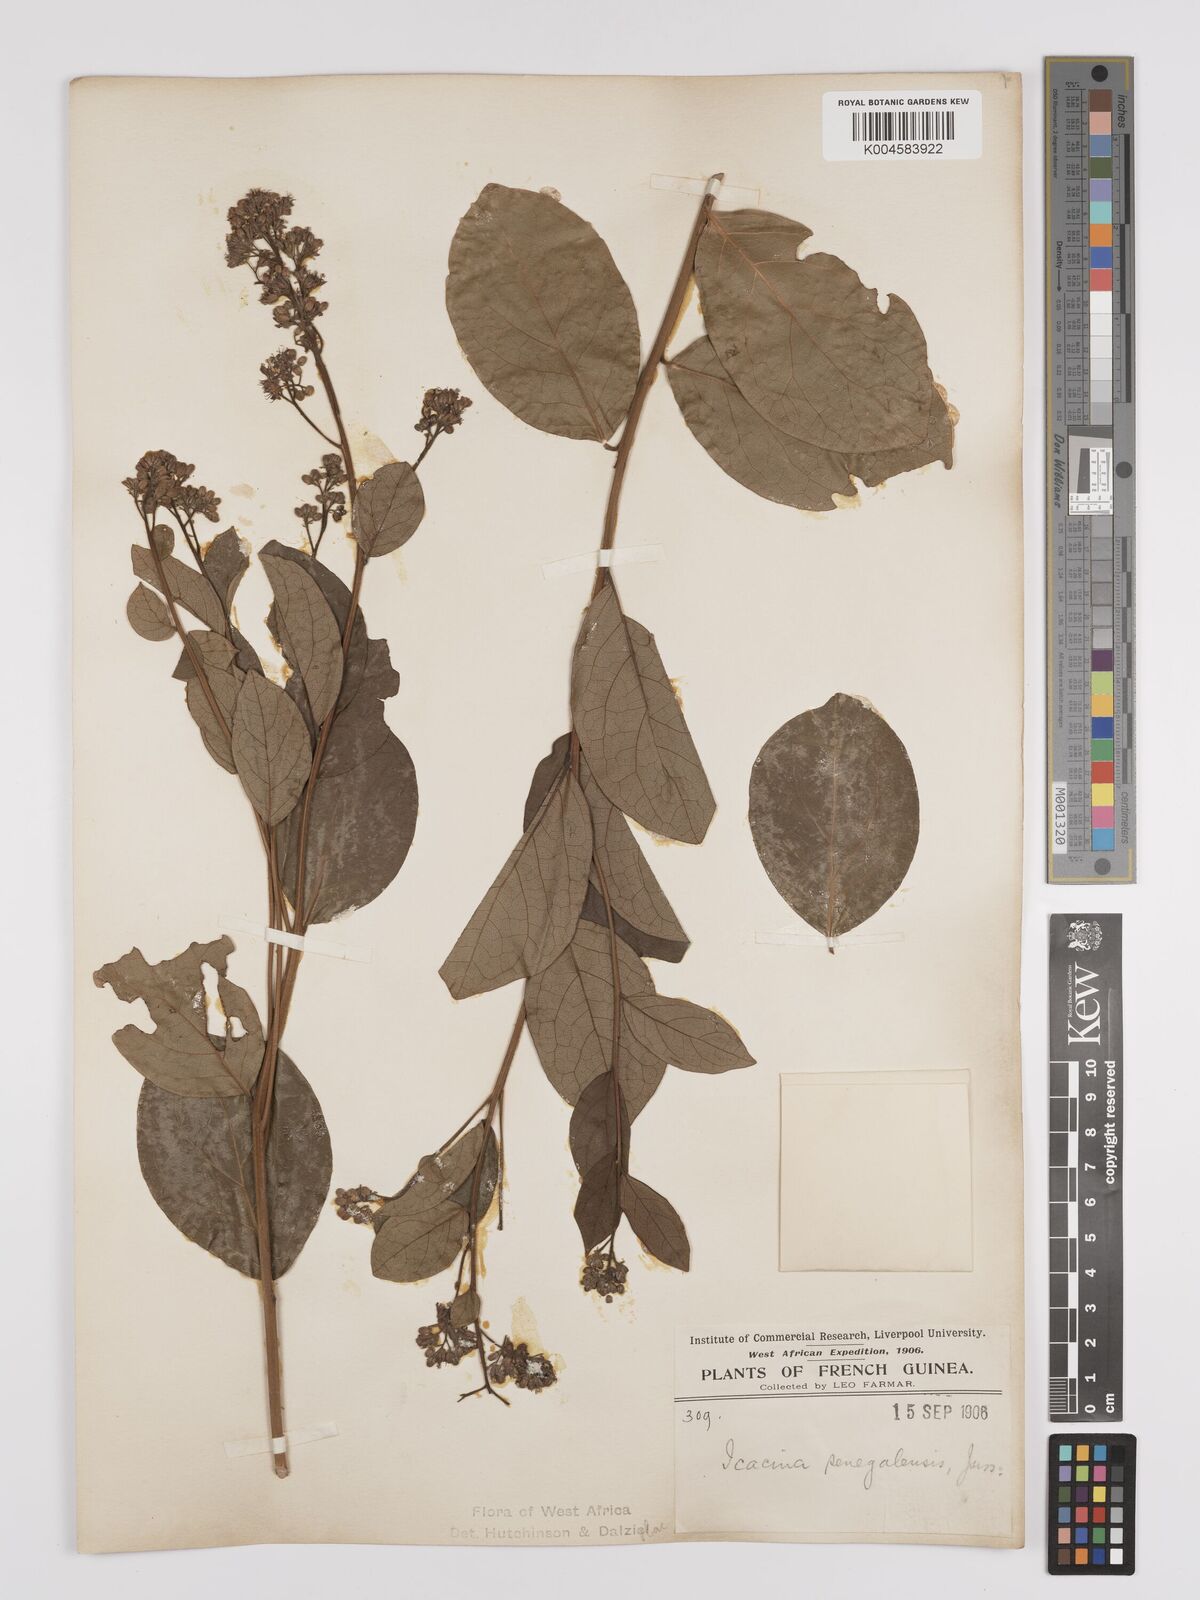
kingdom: Plantae
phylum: Tracheophyta
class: Magnoliopsida
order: Icacinales
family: Icacinaceae
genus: Icacina
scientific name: Icacina oliviformis
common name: False yam
